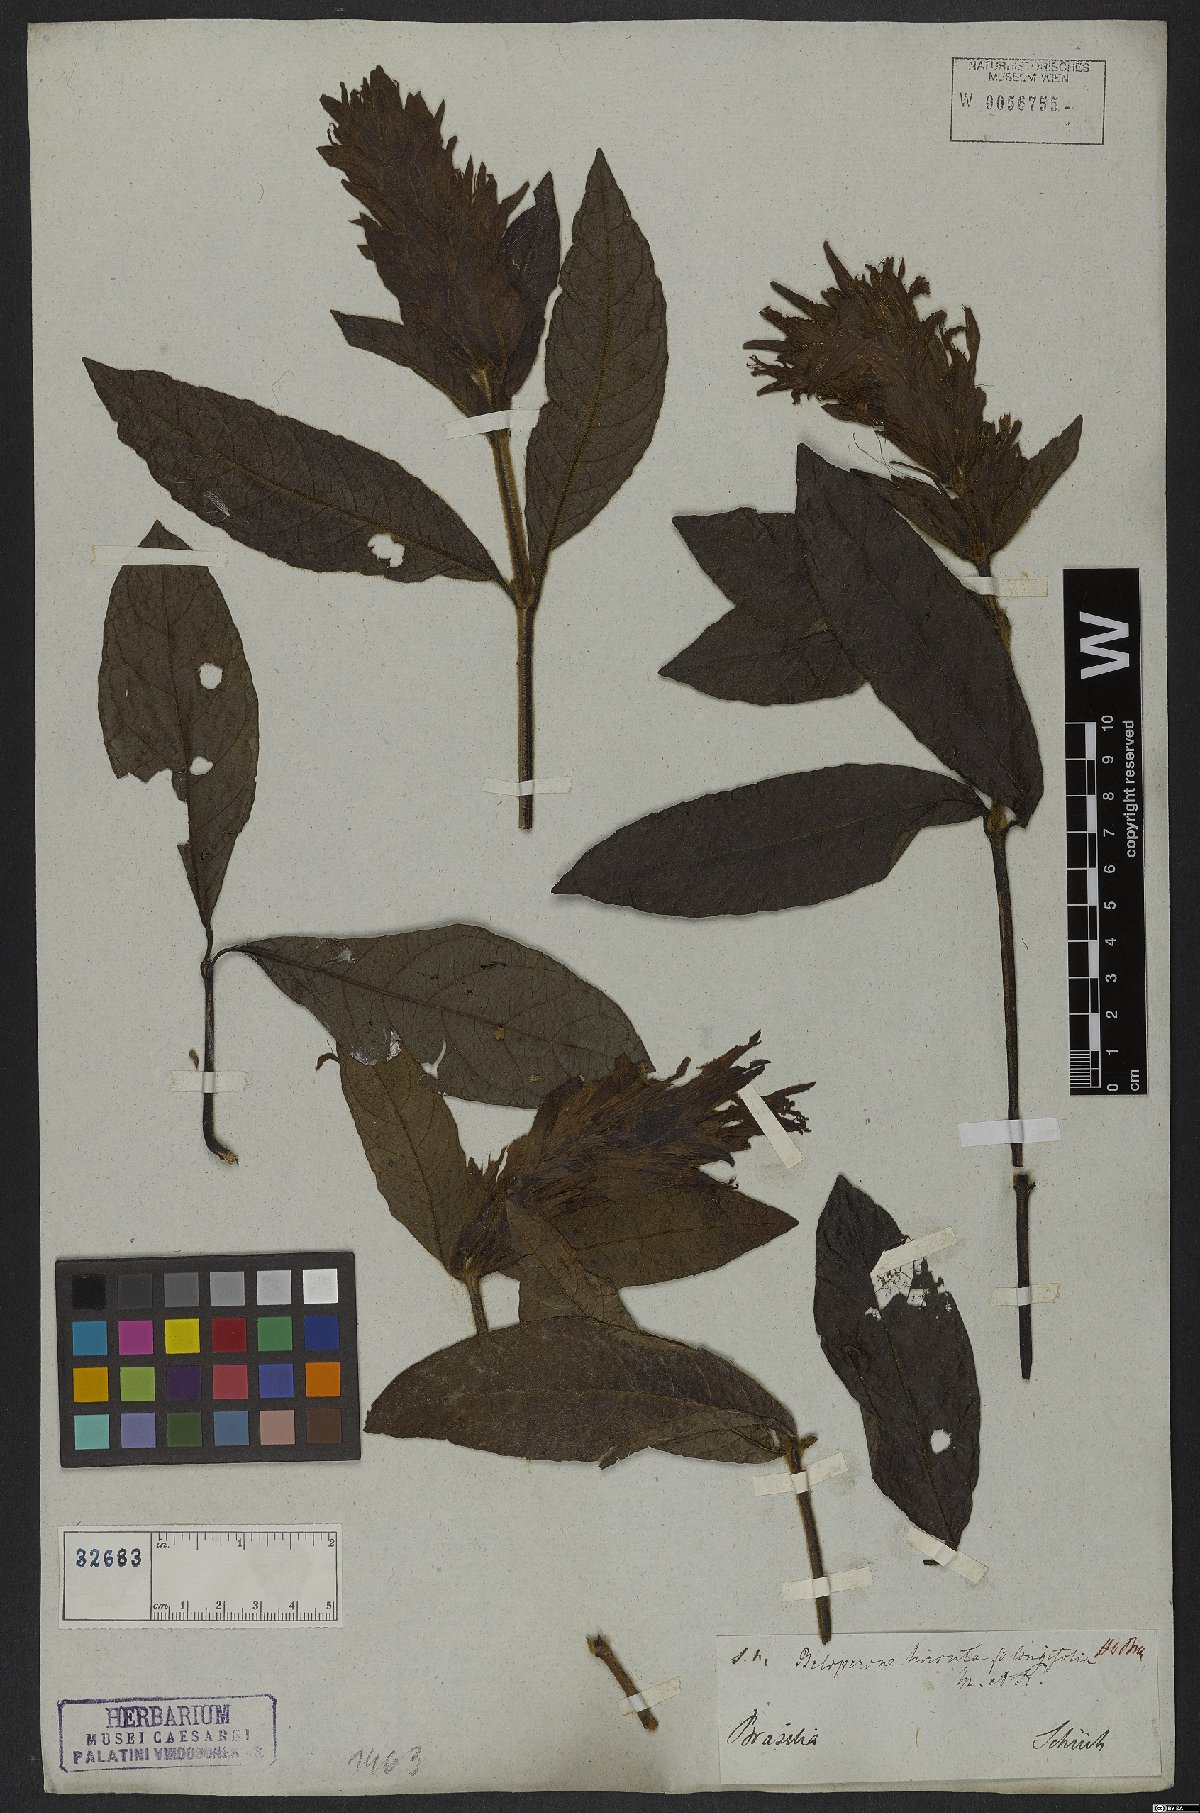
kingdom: Plantae
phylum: Tracheophyta
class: Magnoliopsida
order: Gentianales
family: Rubiaceae
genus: Gonzalagunia
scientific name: Gonzalagunia hirsuta
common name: Mata de mariposa
